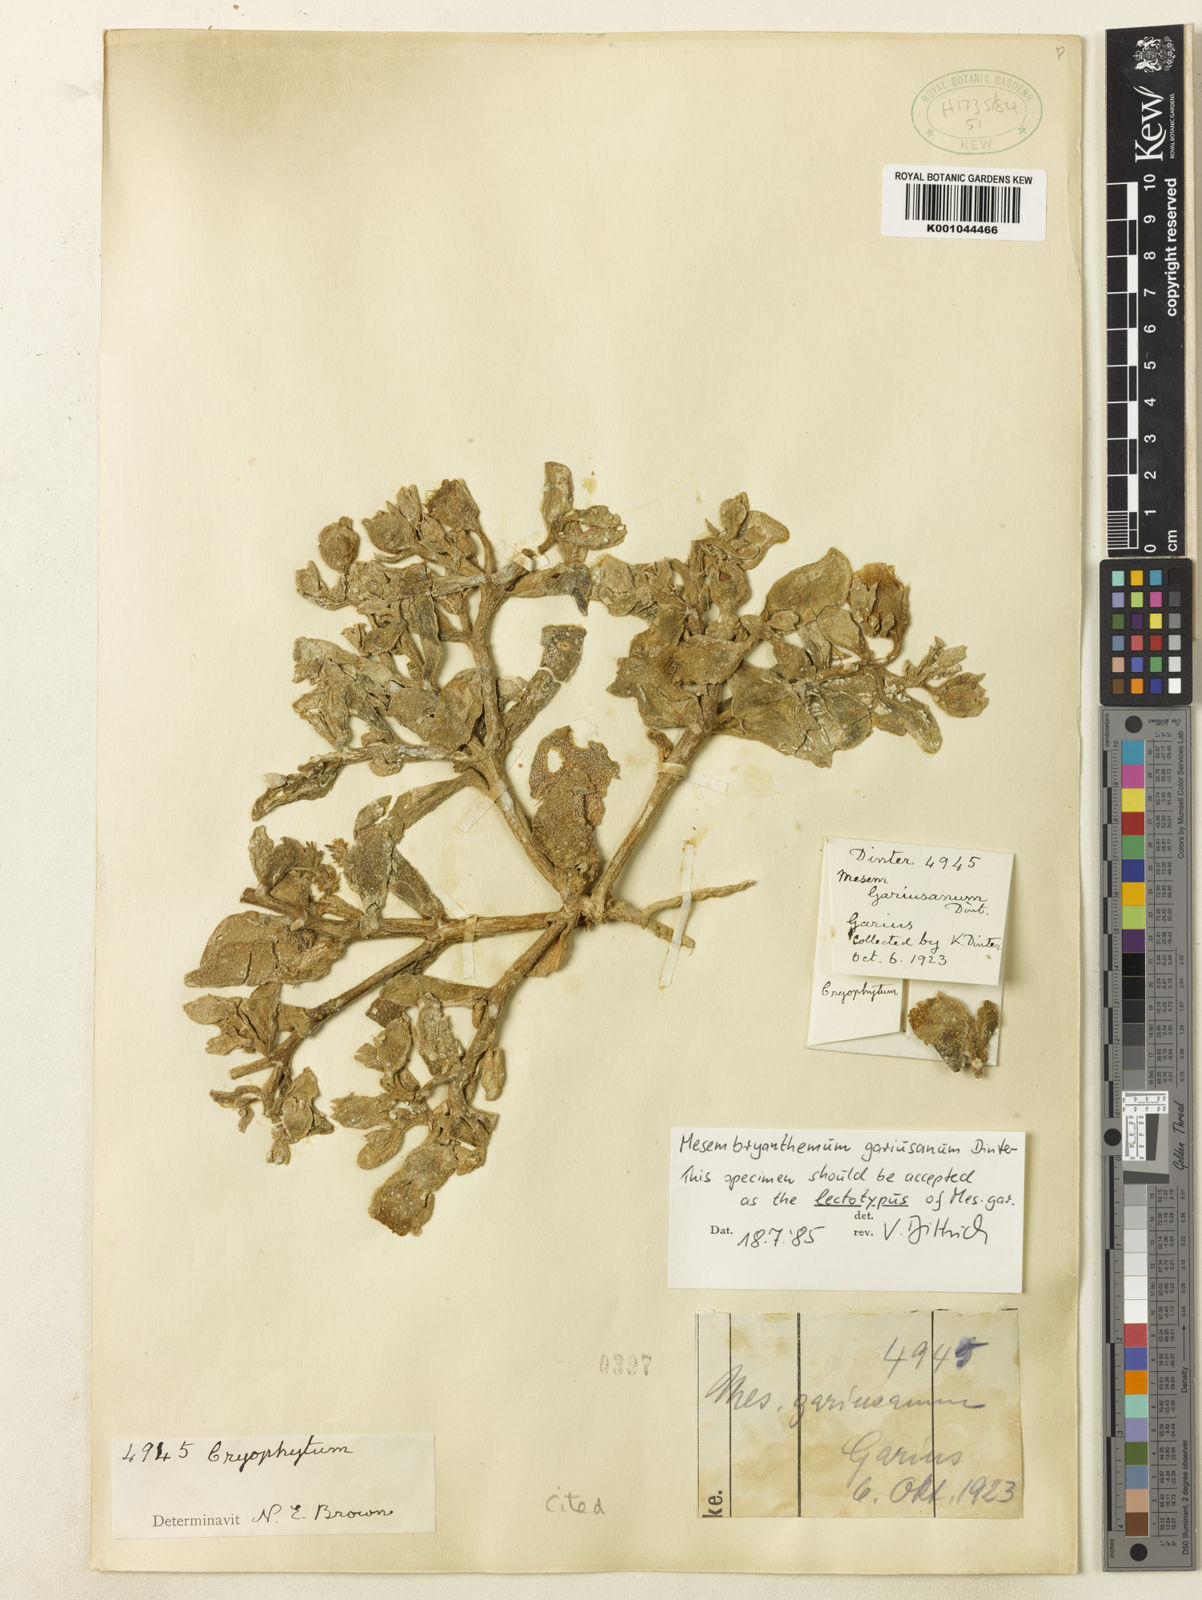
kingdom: Plantae
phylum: Tracheophyta
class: Magnoliopsida
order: Caryophyllales
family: Aizoaceae
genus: Mesembryanthemum
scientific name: Mesembryanthemum gariusanum
